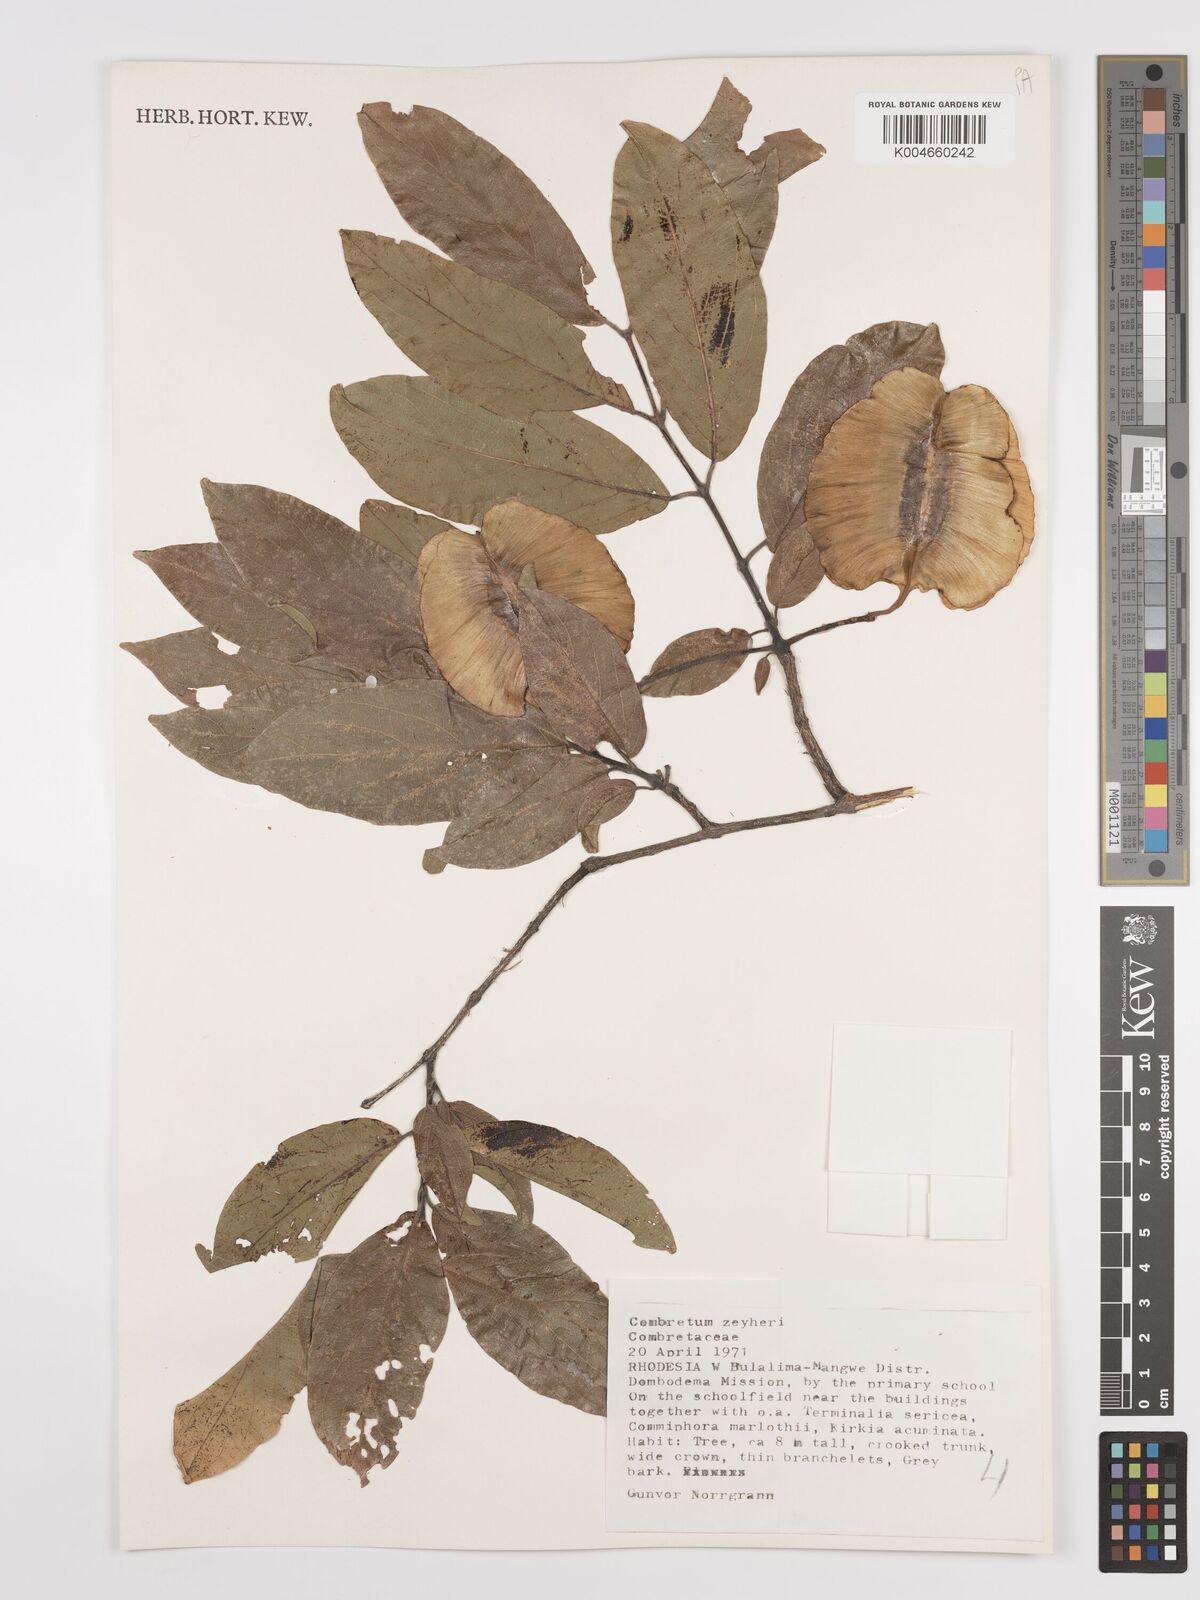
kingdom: Plantae
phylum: Tracheophyta
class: Magnoliopsida
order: Myrtales
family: Combretaceae
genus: Combretum
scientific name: Combretum zeyheri
